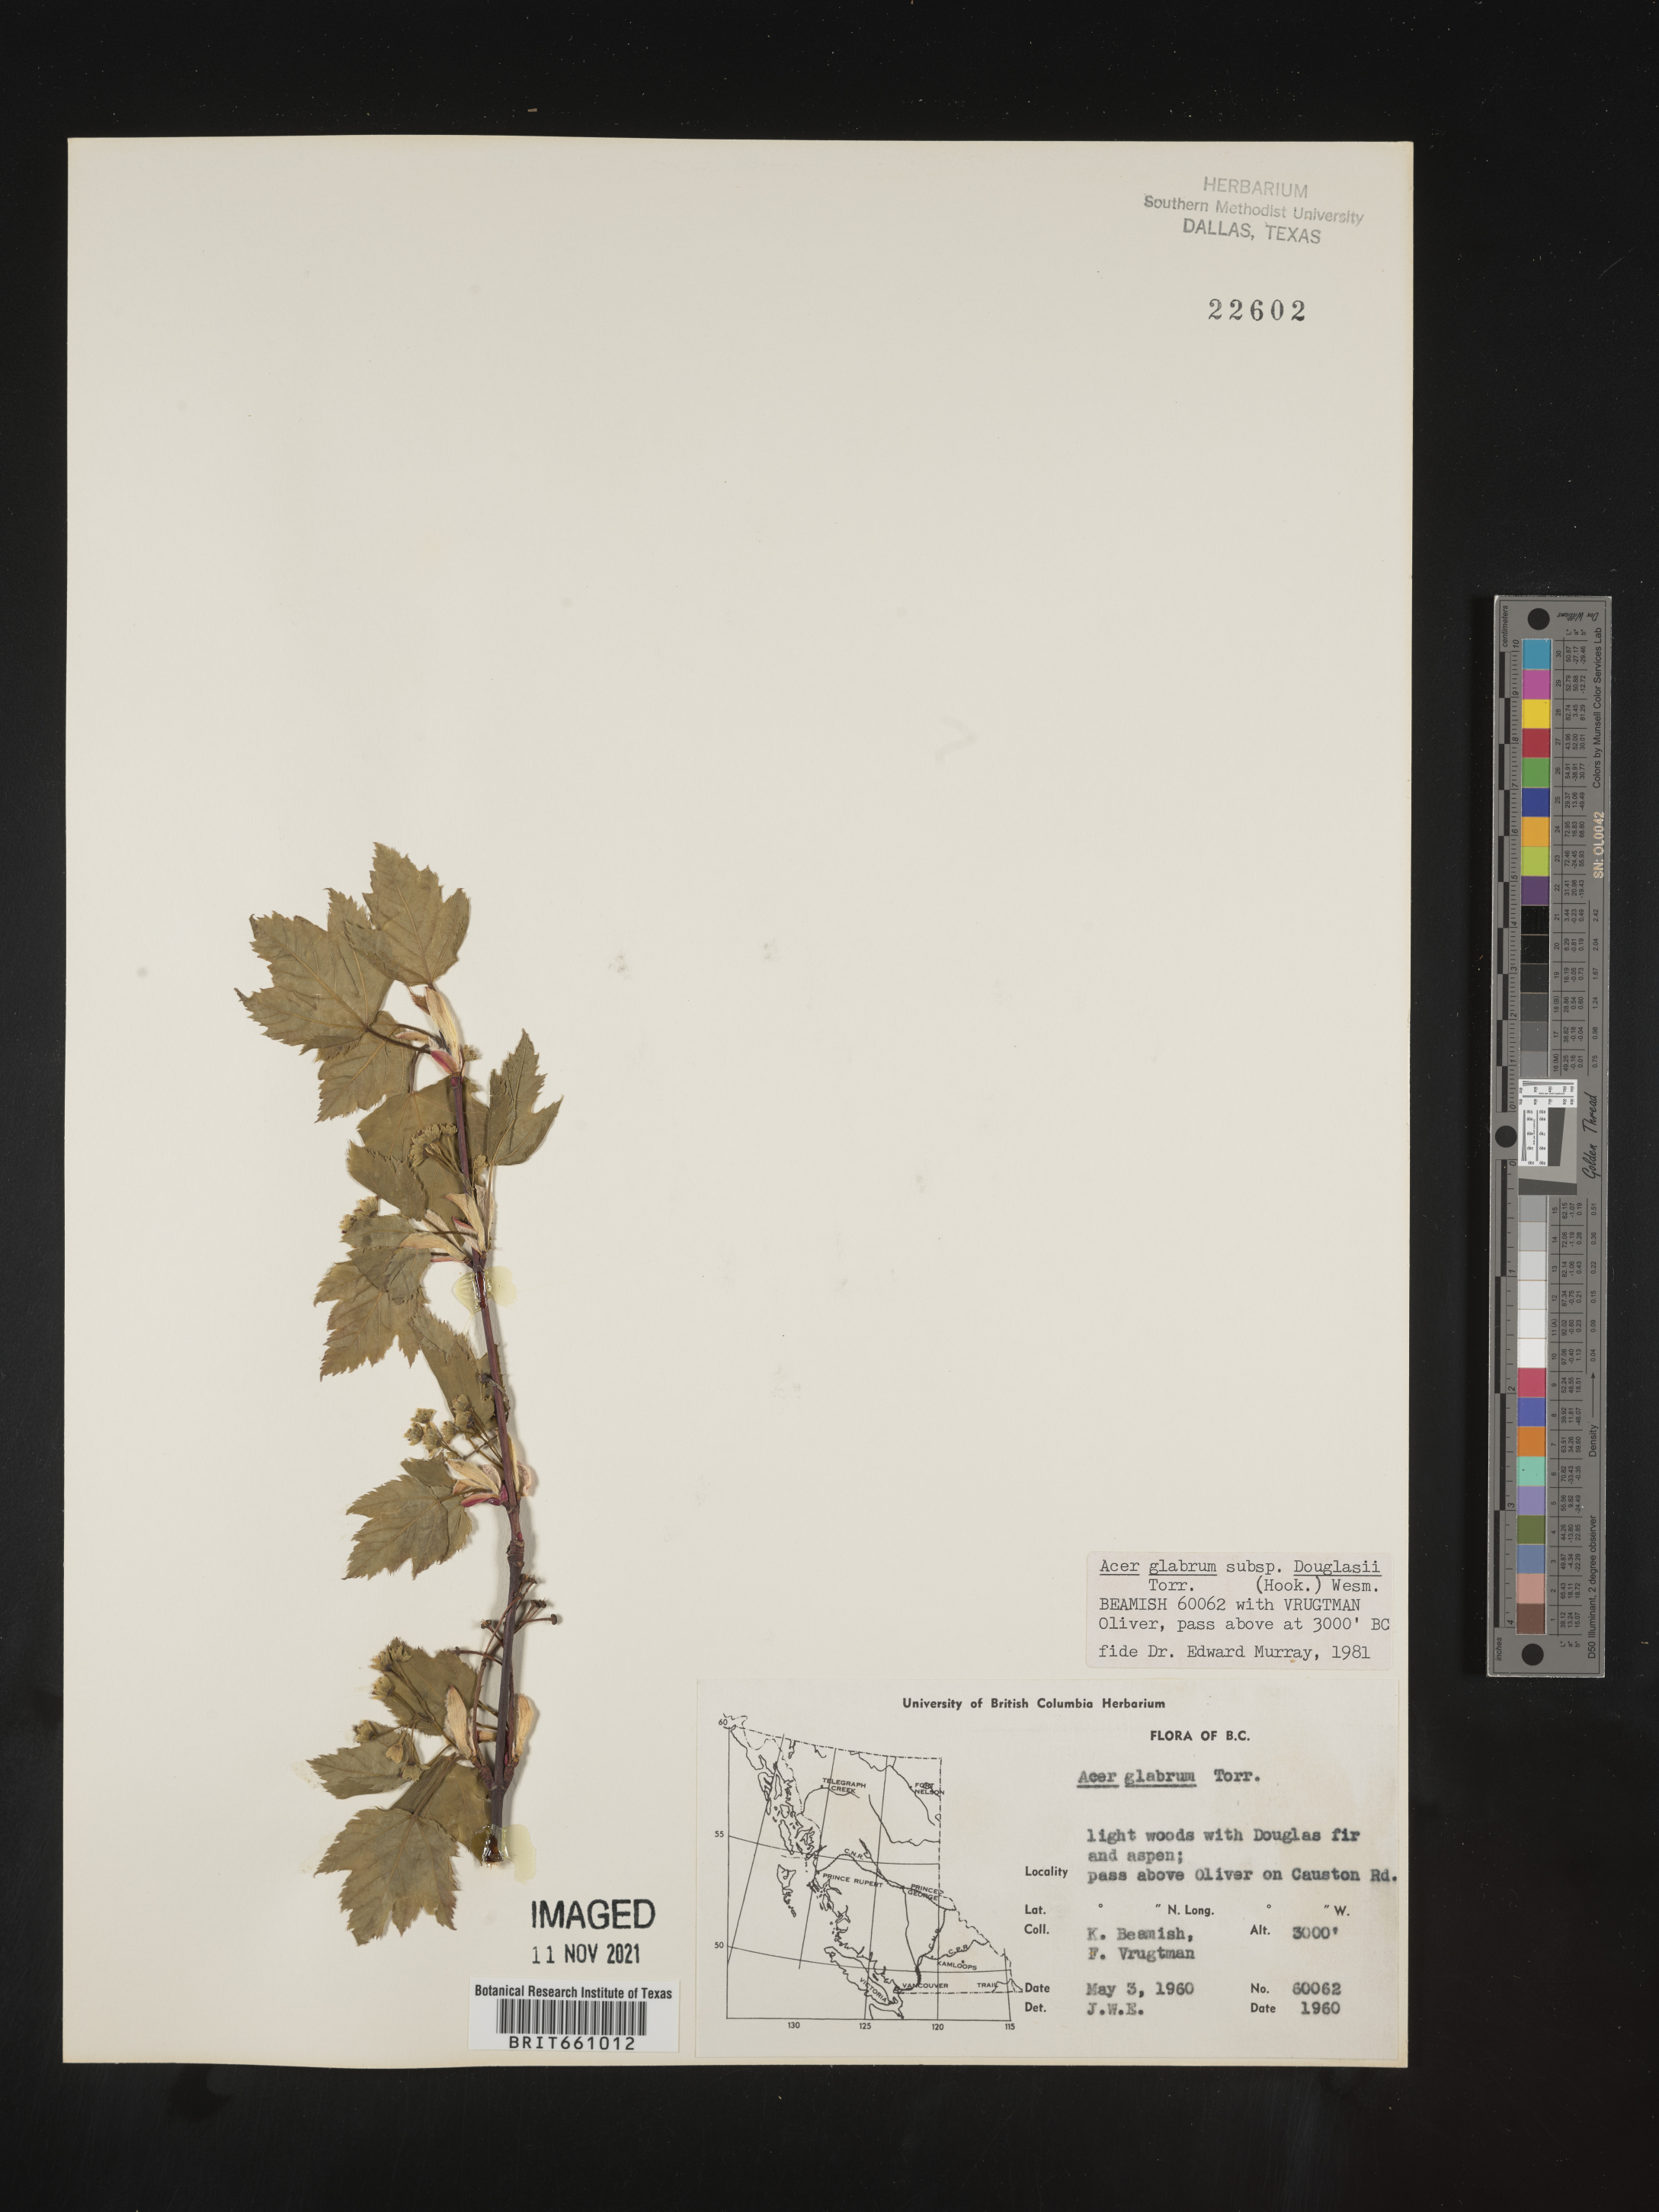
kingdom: Plantae
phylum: Tracheophyta
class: Magnoliopsida
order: Sapindales
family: Sapindaceae
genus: Acer
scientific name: Acer glabrum
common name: Rocky mountain maple
